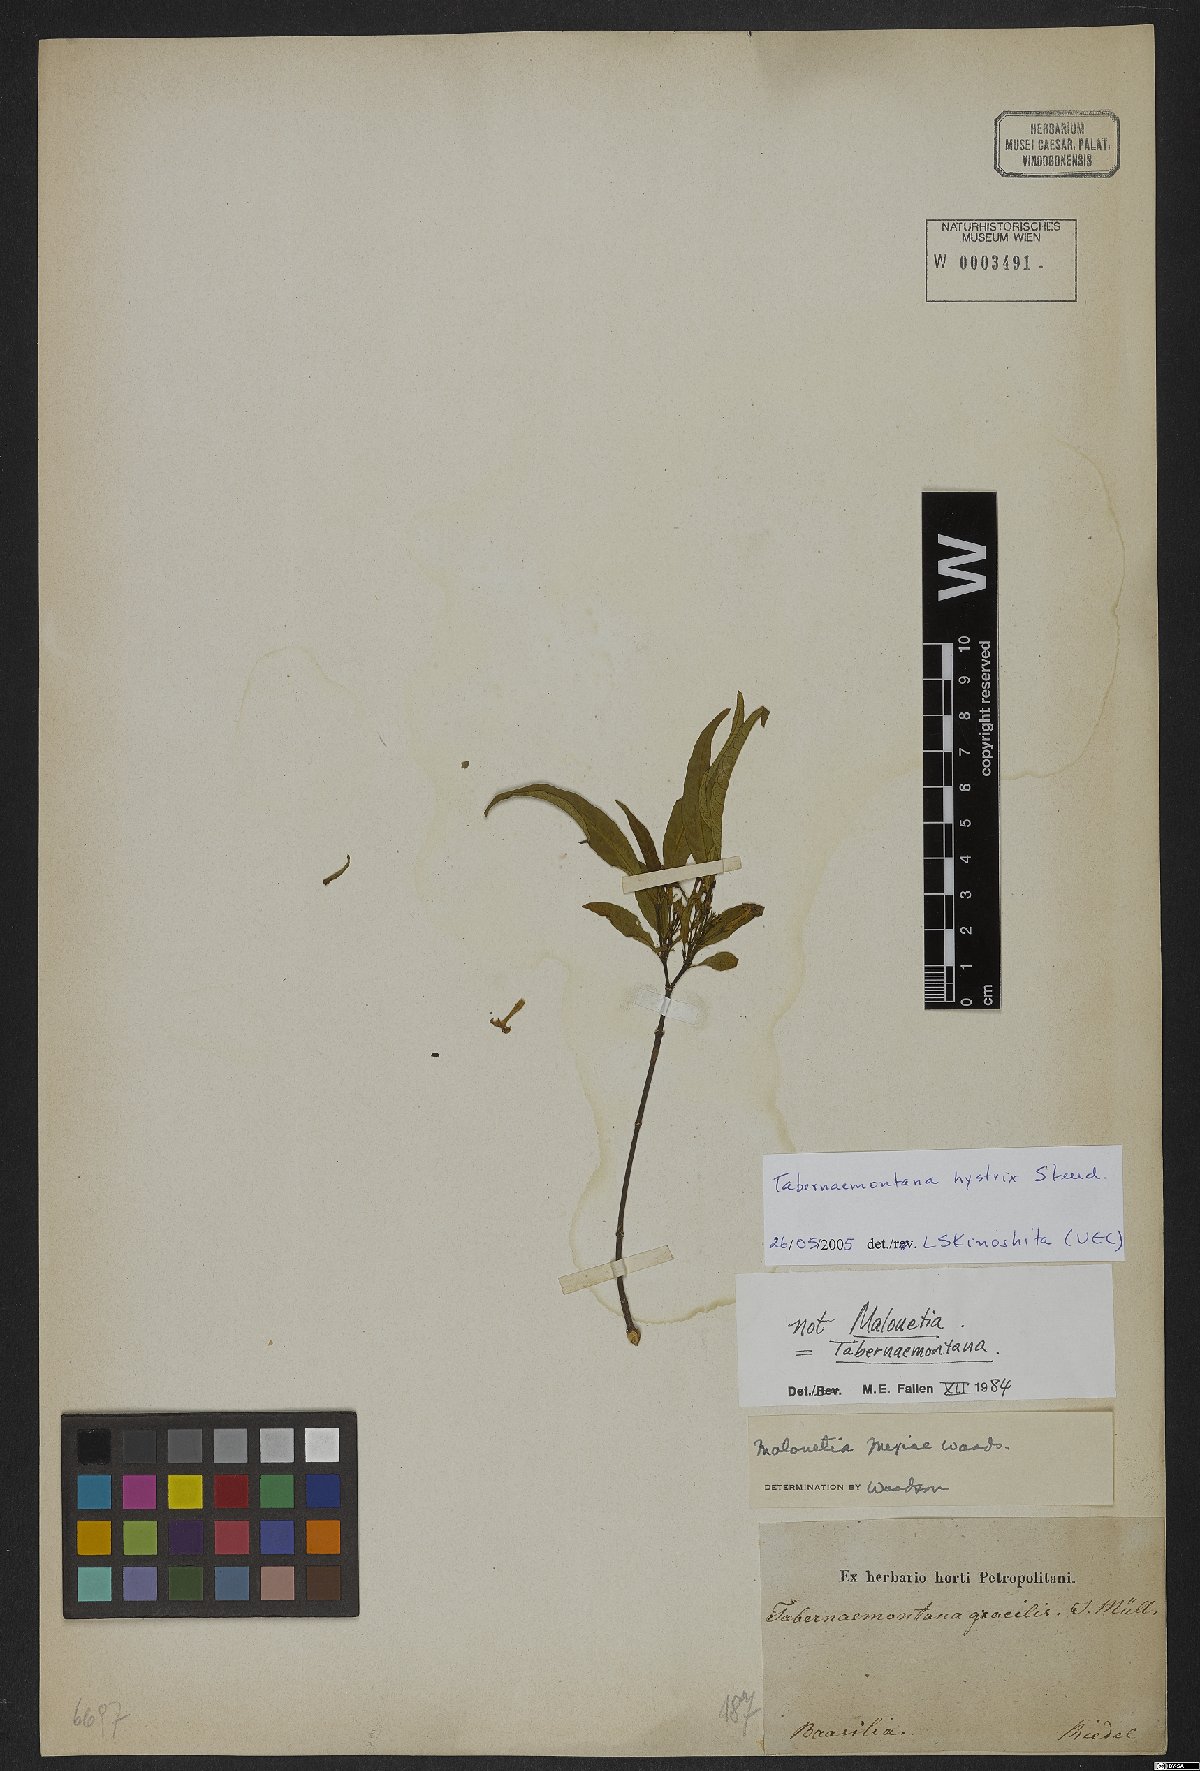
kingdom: Plantae
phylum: Tracheophyta
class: Magnoliopsida
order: Gentianales
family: Apocynaceae
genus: Tabernaemontana
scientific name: Tabernaemontana hystrix
